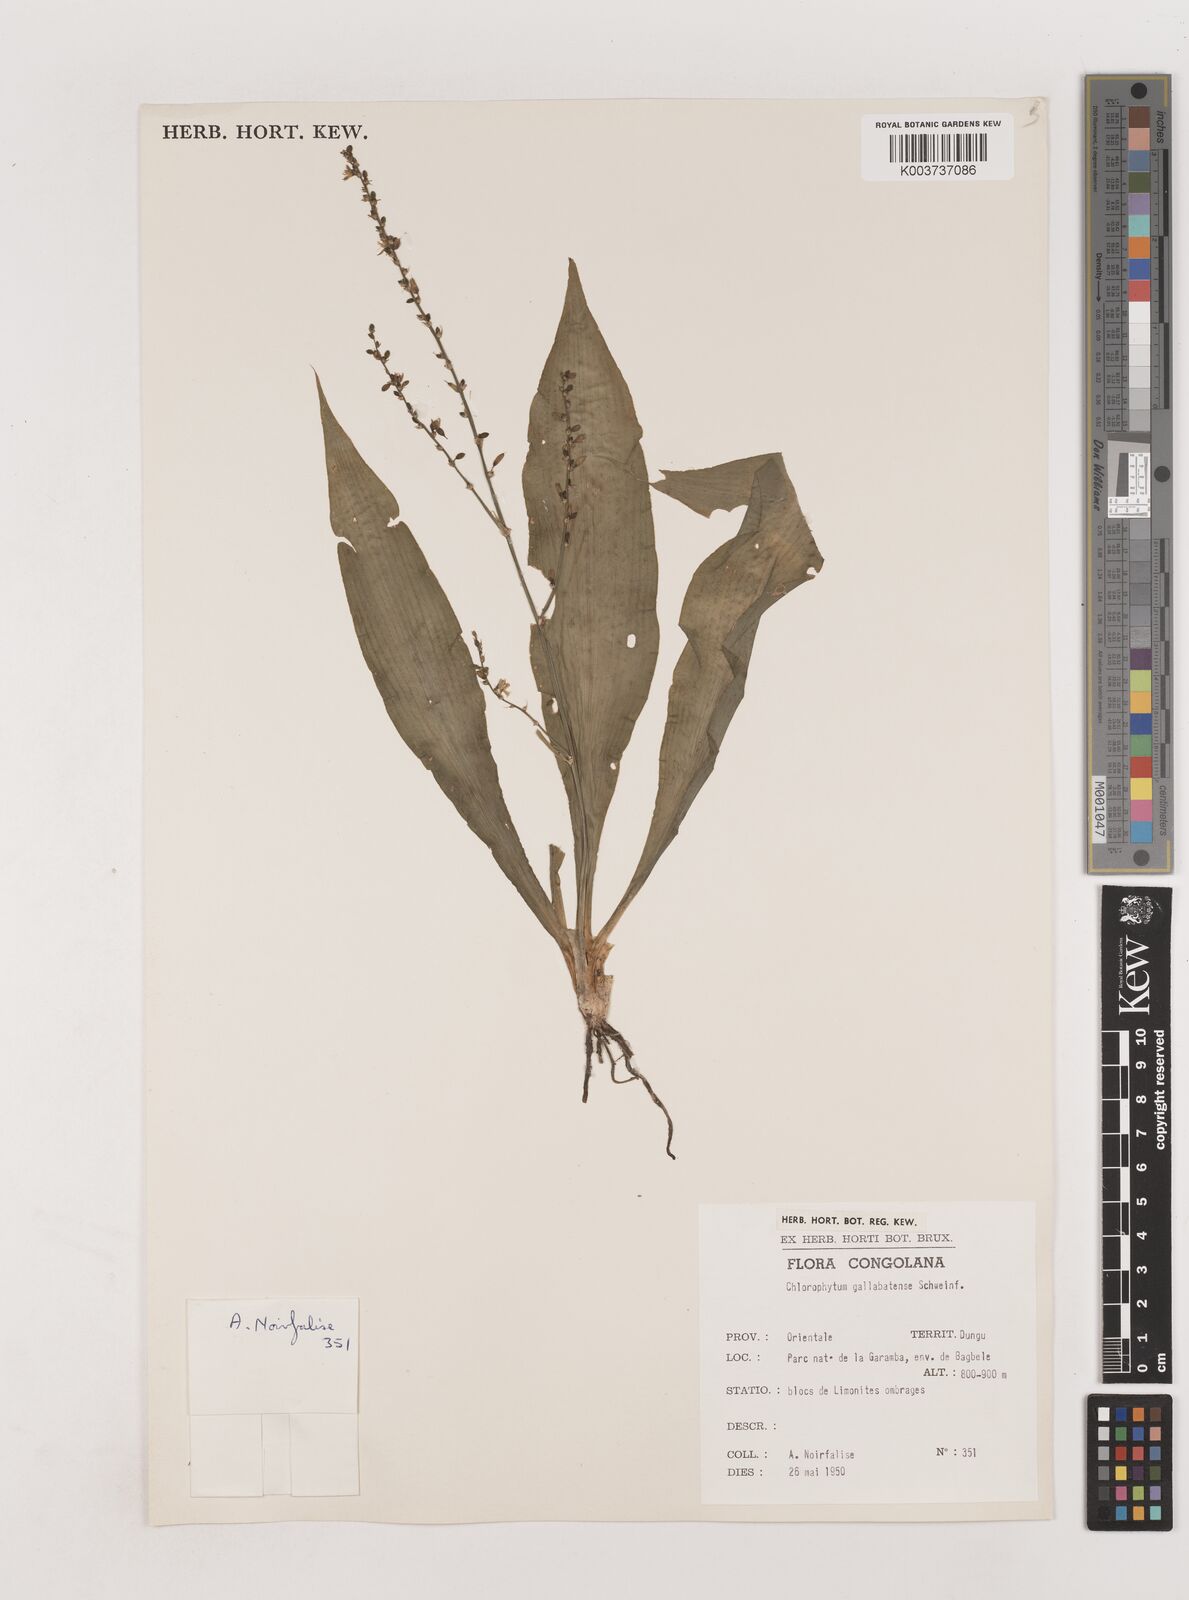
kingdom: Plantae
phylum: Tracheophyta
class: Liliopsida
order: Asparagales
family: Asparagaceae
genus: Chlorophytum
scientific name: Chlorophytum gallabatense
